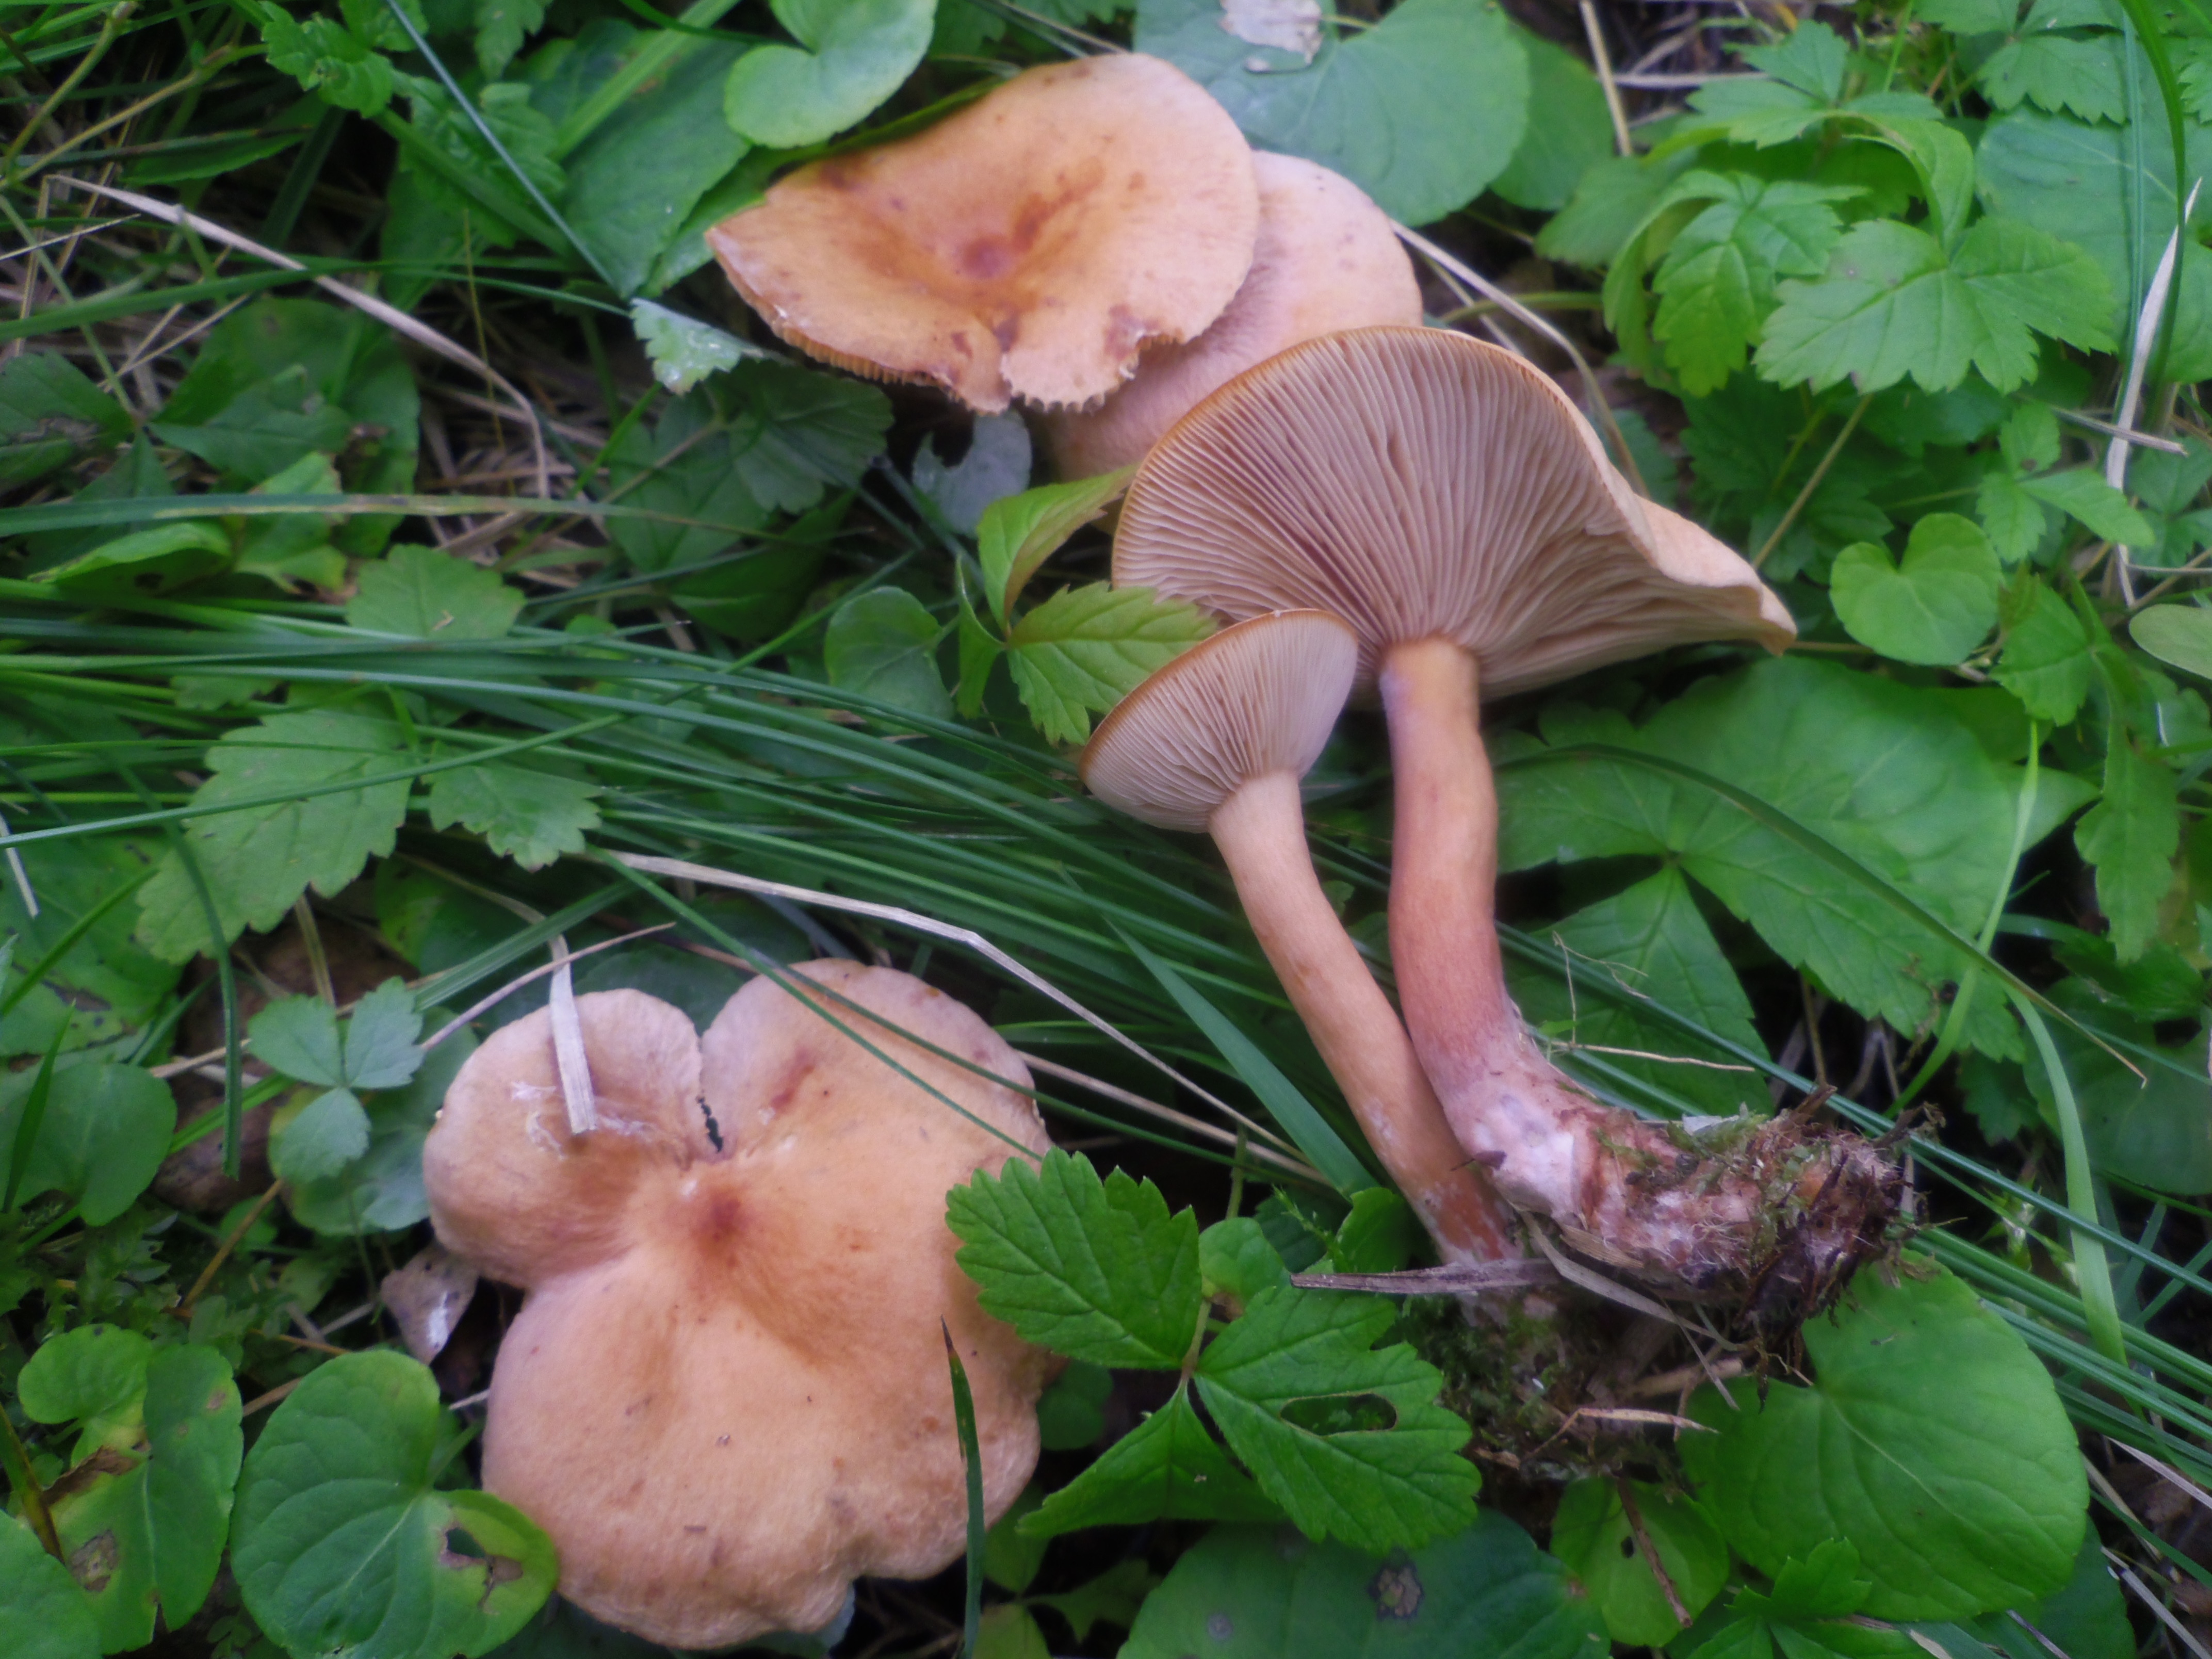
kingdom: Fungi
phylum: Basidiomycota
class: Agaricomycetes
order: Russulales
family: Russulaceae
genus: Lactarius
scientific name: Lactarius tabidus
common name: Birch milkcap
